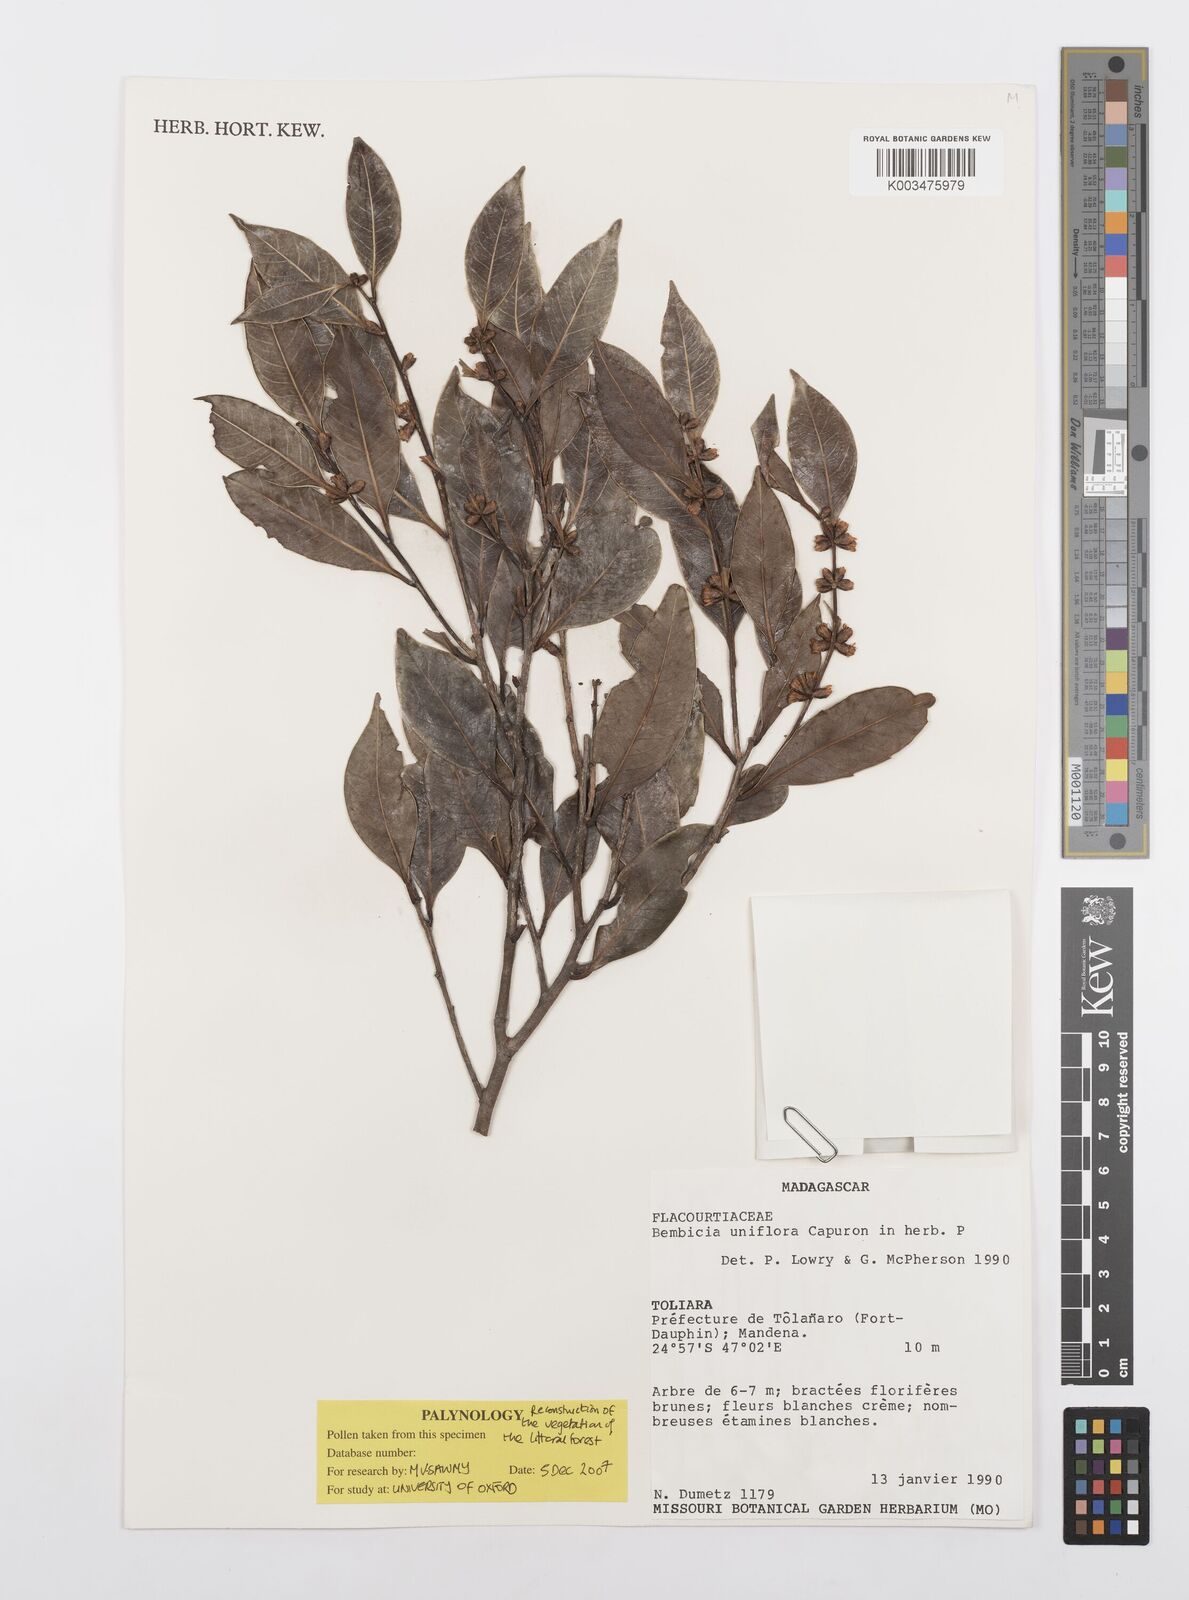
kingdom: Plantae
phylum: Tracheophyta
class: Magnoliopsida
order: Malpighiales
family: Salicaceae
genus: Bembicia
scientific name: Bembicia
